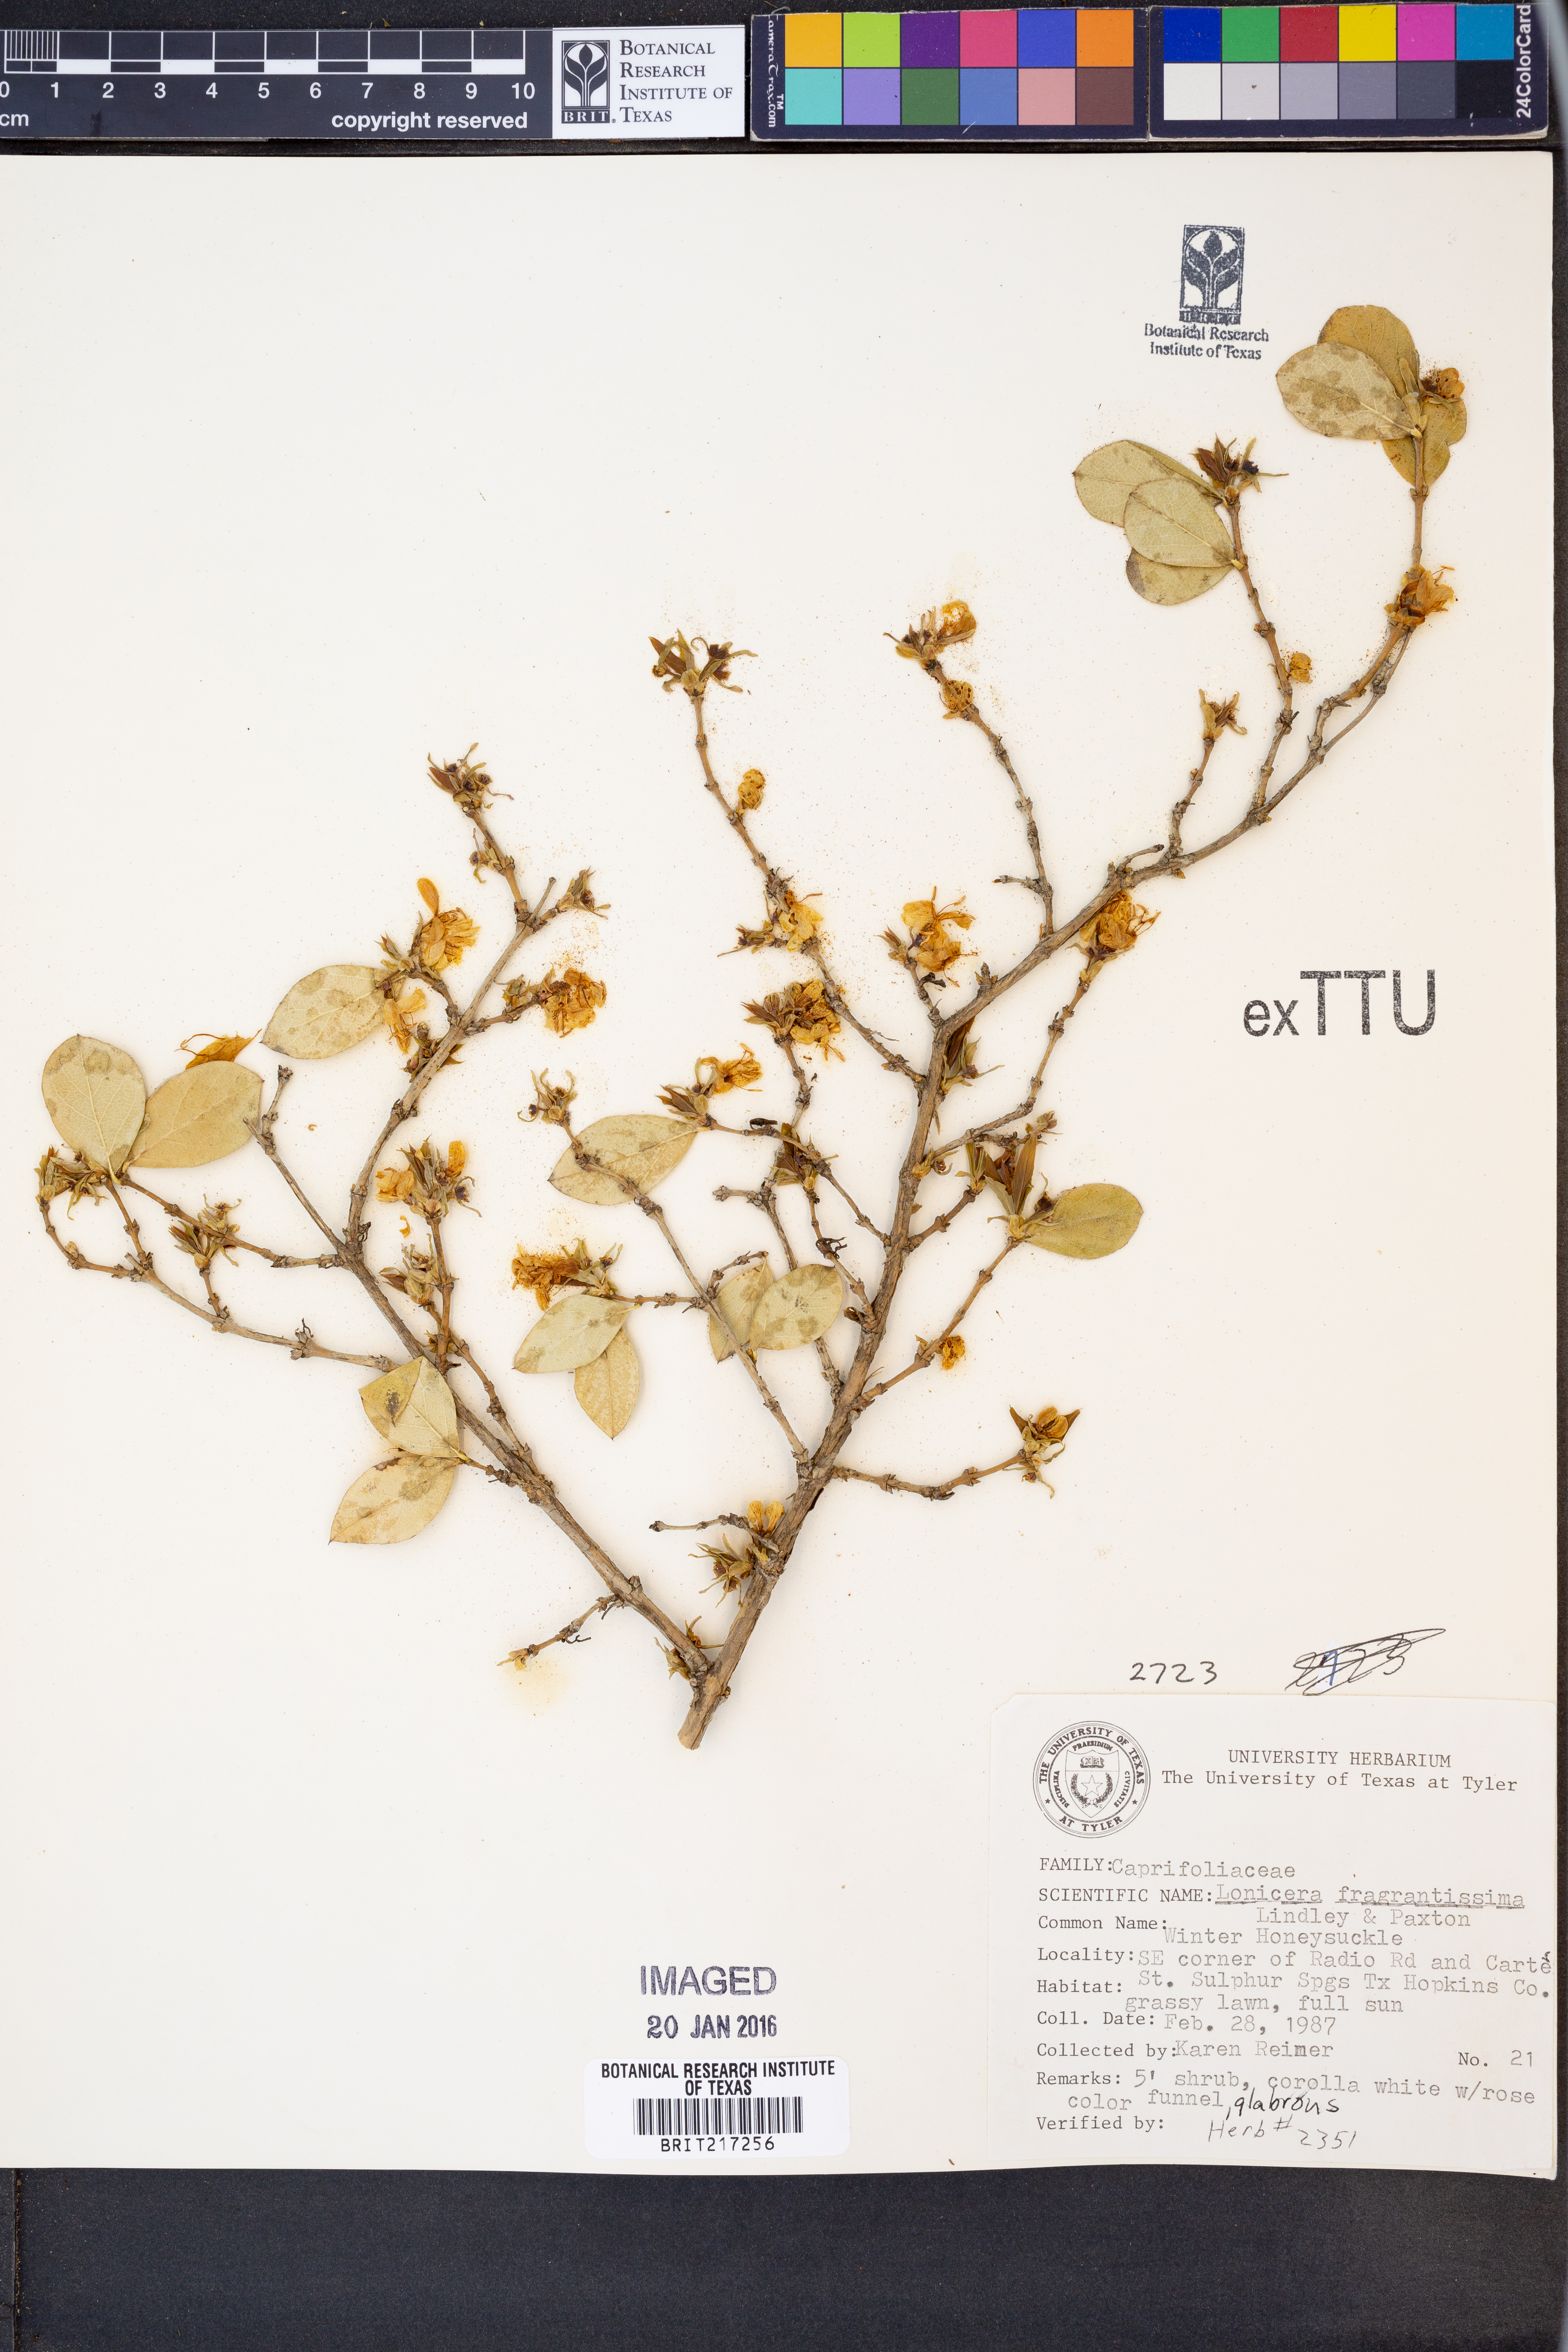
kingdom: Plantae
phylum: Tracheophyta
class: Magnoliopsida
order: Dipsacales
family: Caprifoliaceae
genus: Lonicera
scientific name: Lonicera fragrantissima
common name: Fragrant honeysuckle
